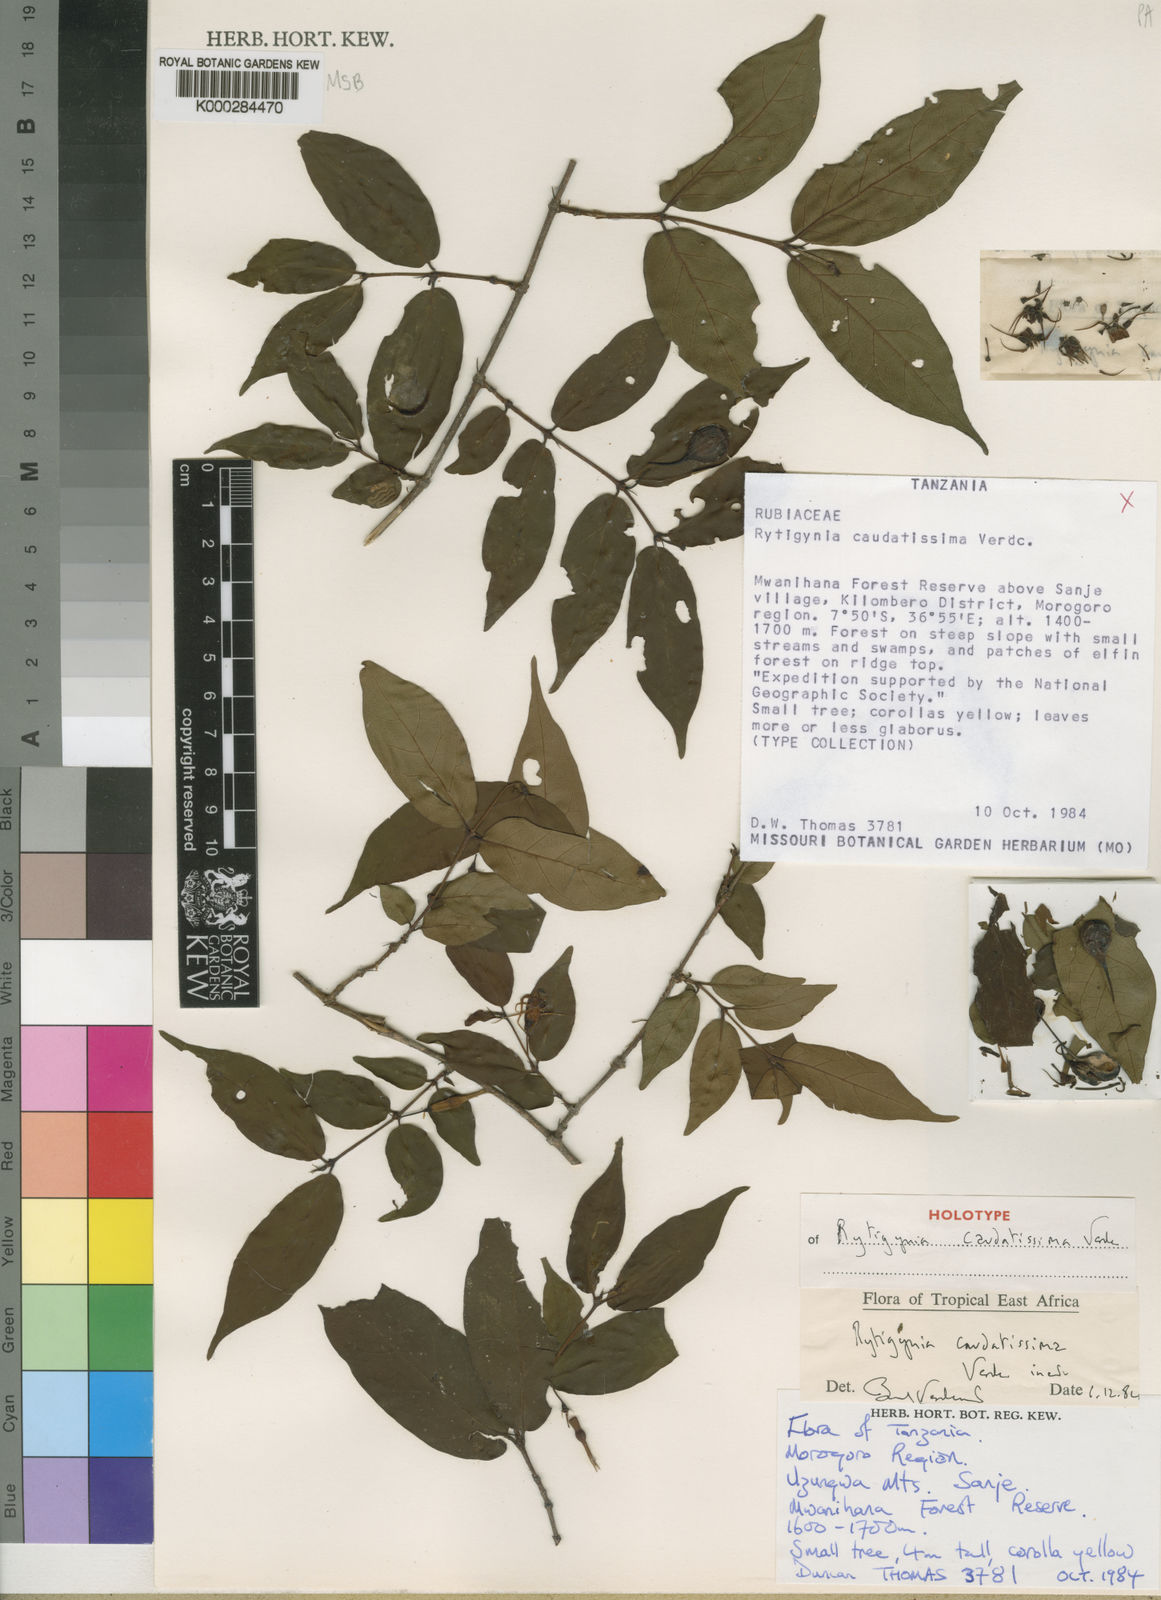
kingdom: Plantae
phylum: Tracheophyta
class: Magnoliopsida
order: Gentianales
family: Rubiaceae
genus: Rytigynia
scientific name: Rytigynia caudatissima
